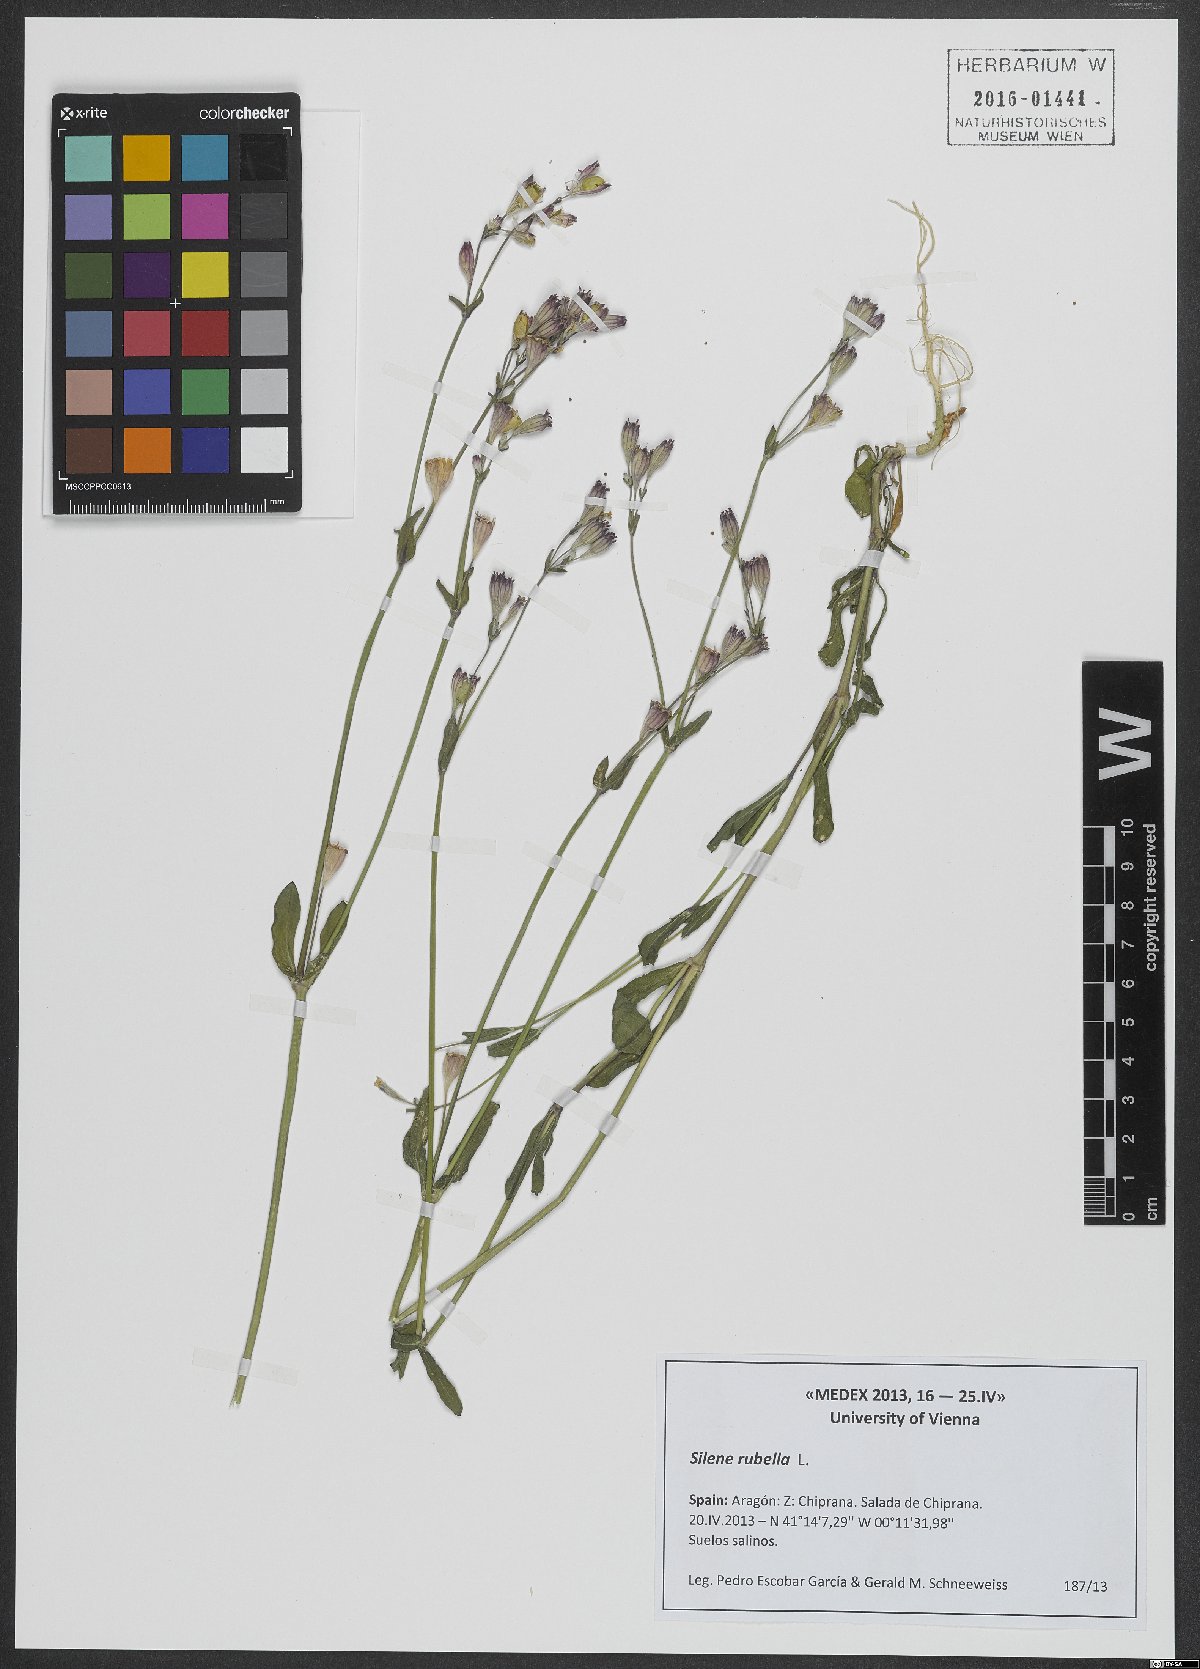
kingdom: Plantae
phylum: Tracheophyta
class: Magnoliopsida
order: Caryophyllales
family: Caryophyllaceae
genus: Silene
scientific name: Silene rubella
